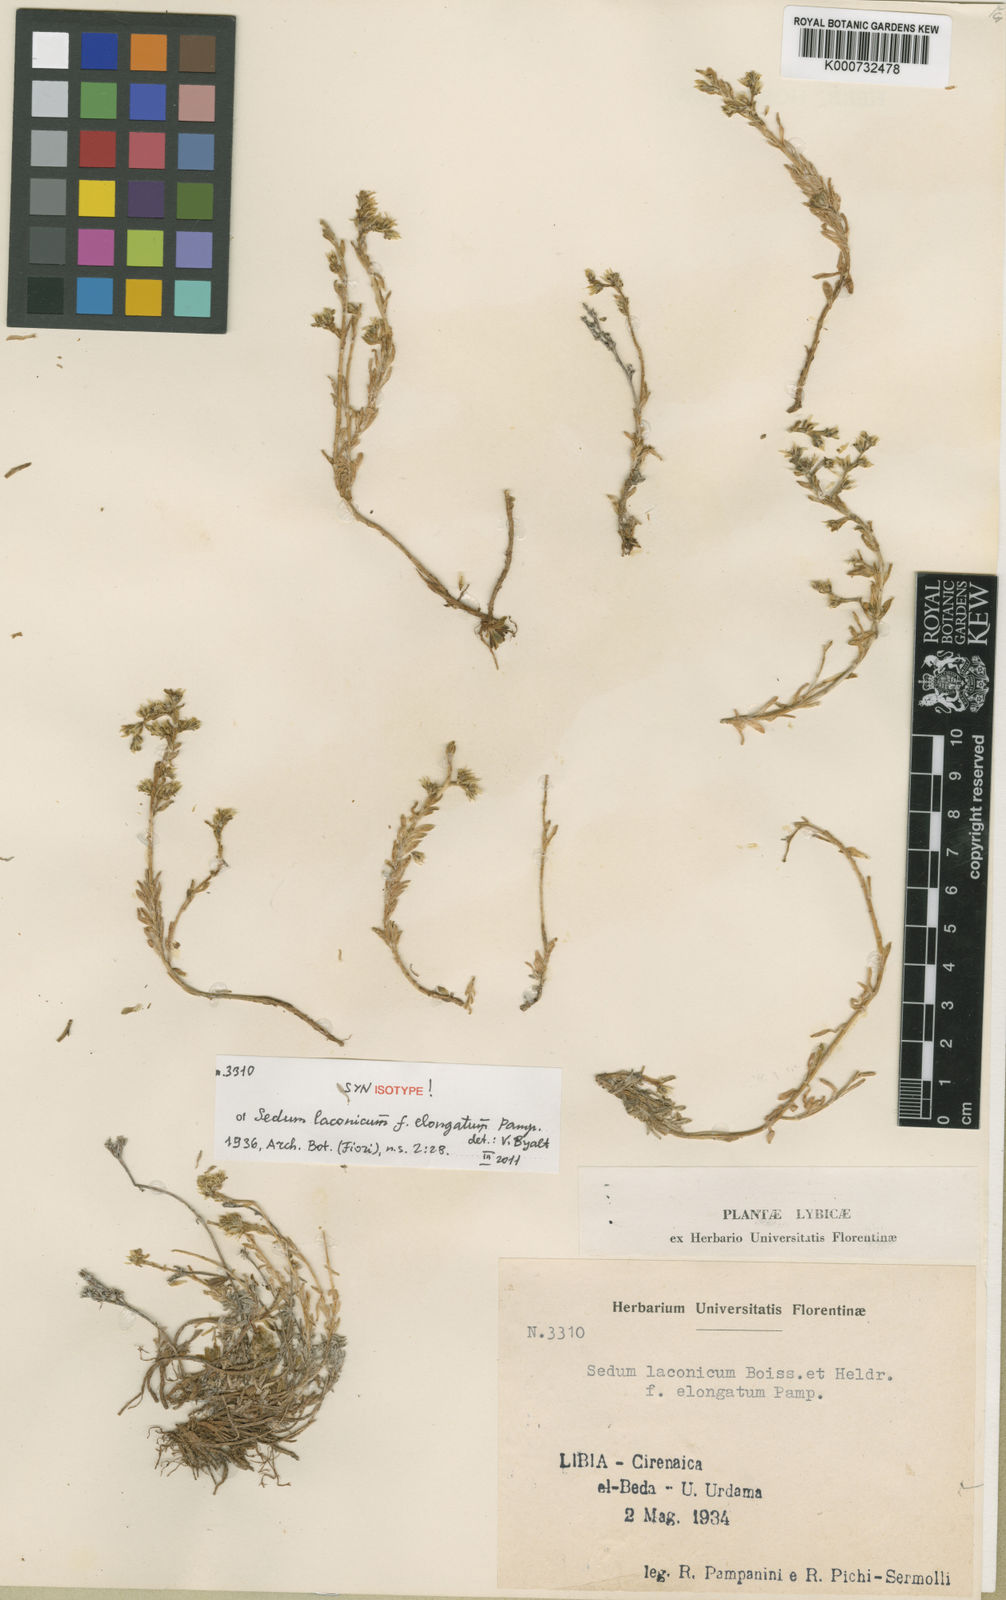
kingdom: Plantae
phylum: Tracheophyta
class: Magnoliopsida
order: Saxifragales
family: Crassulaceae
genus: Sedum
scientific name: Sedum laconicum
